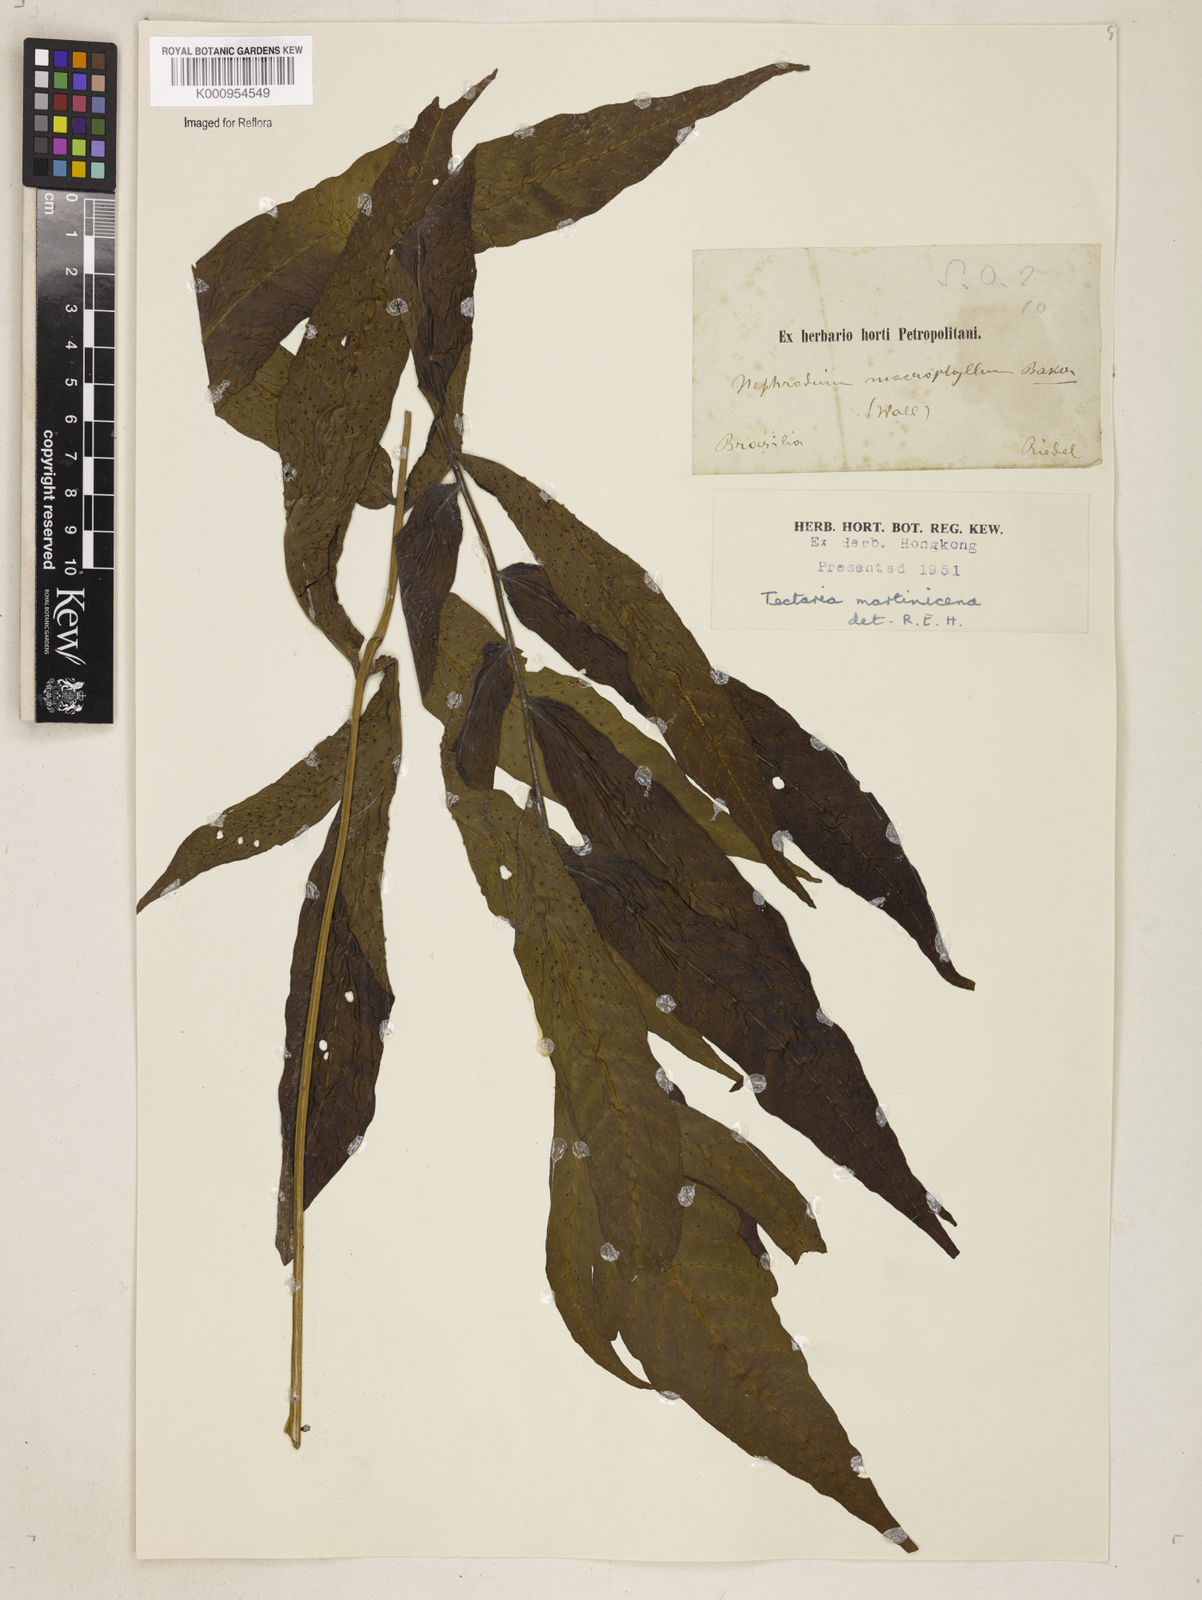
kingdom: Plantae
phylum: Tracheophyta
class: Polypodiopsida
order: Polypodiales
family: Tectariaceae
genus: Tectaria
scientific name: Tectaria incisa
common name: Incised halberd fern
